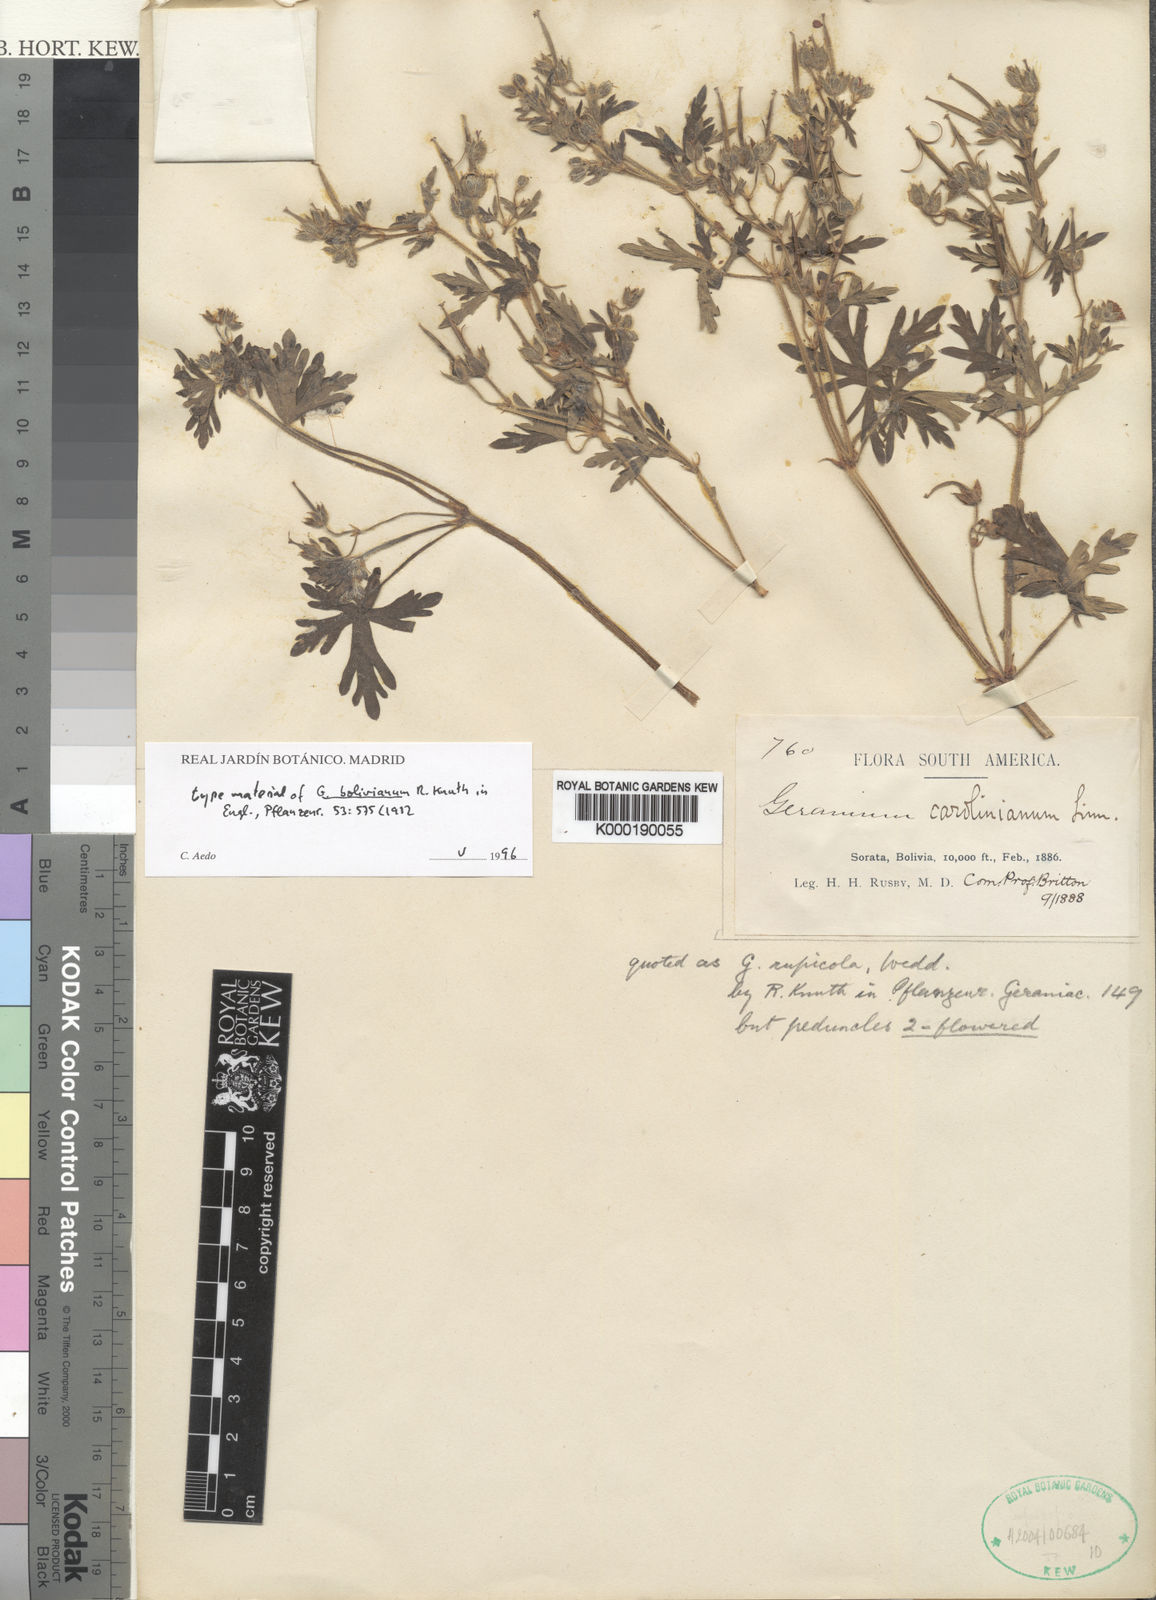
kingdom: Plantae
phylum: Tracheophyta
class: Magnoliopsida
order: Geraniales
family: Geraniaceae
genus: Geranium
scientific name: Geranium fallax
